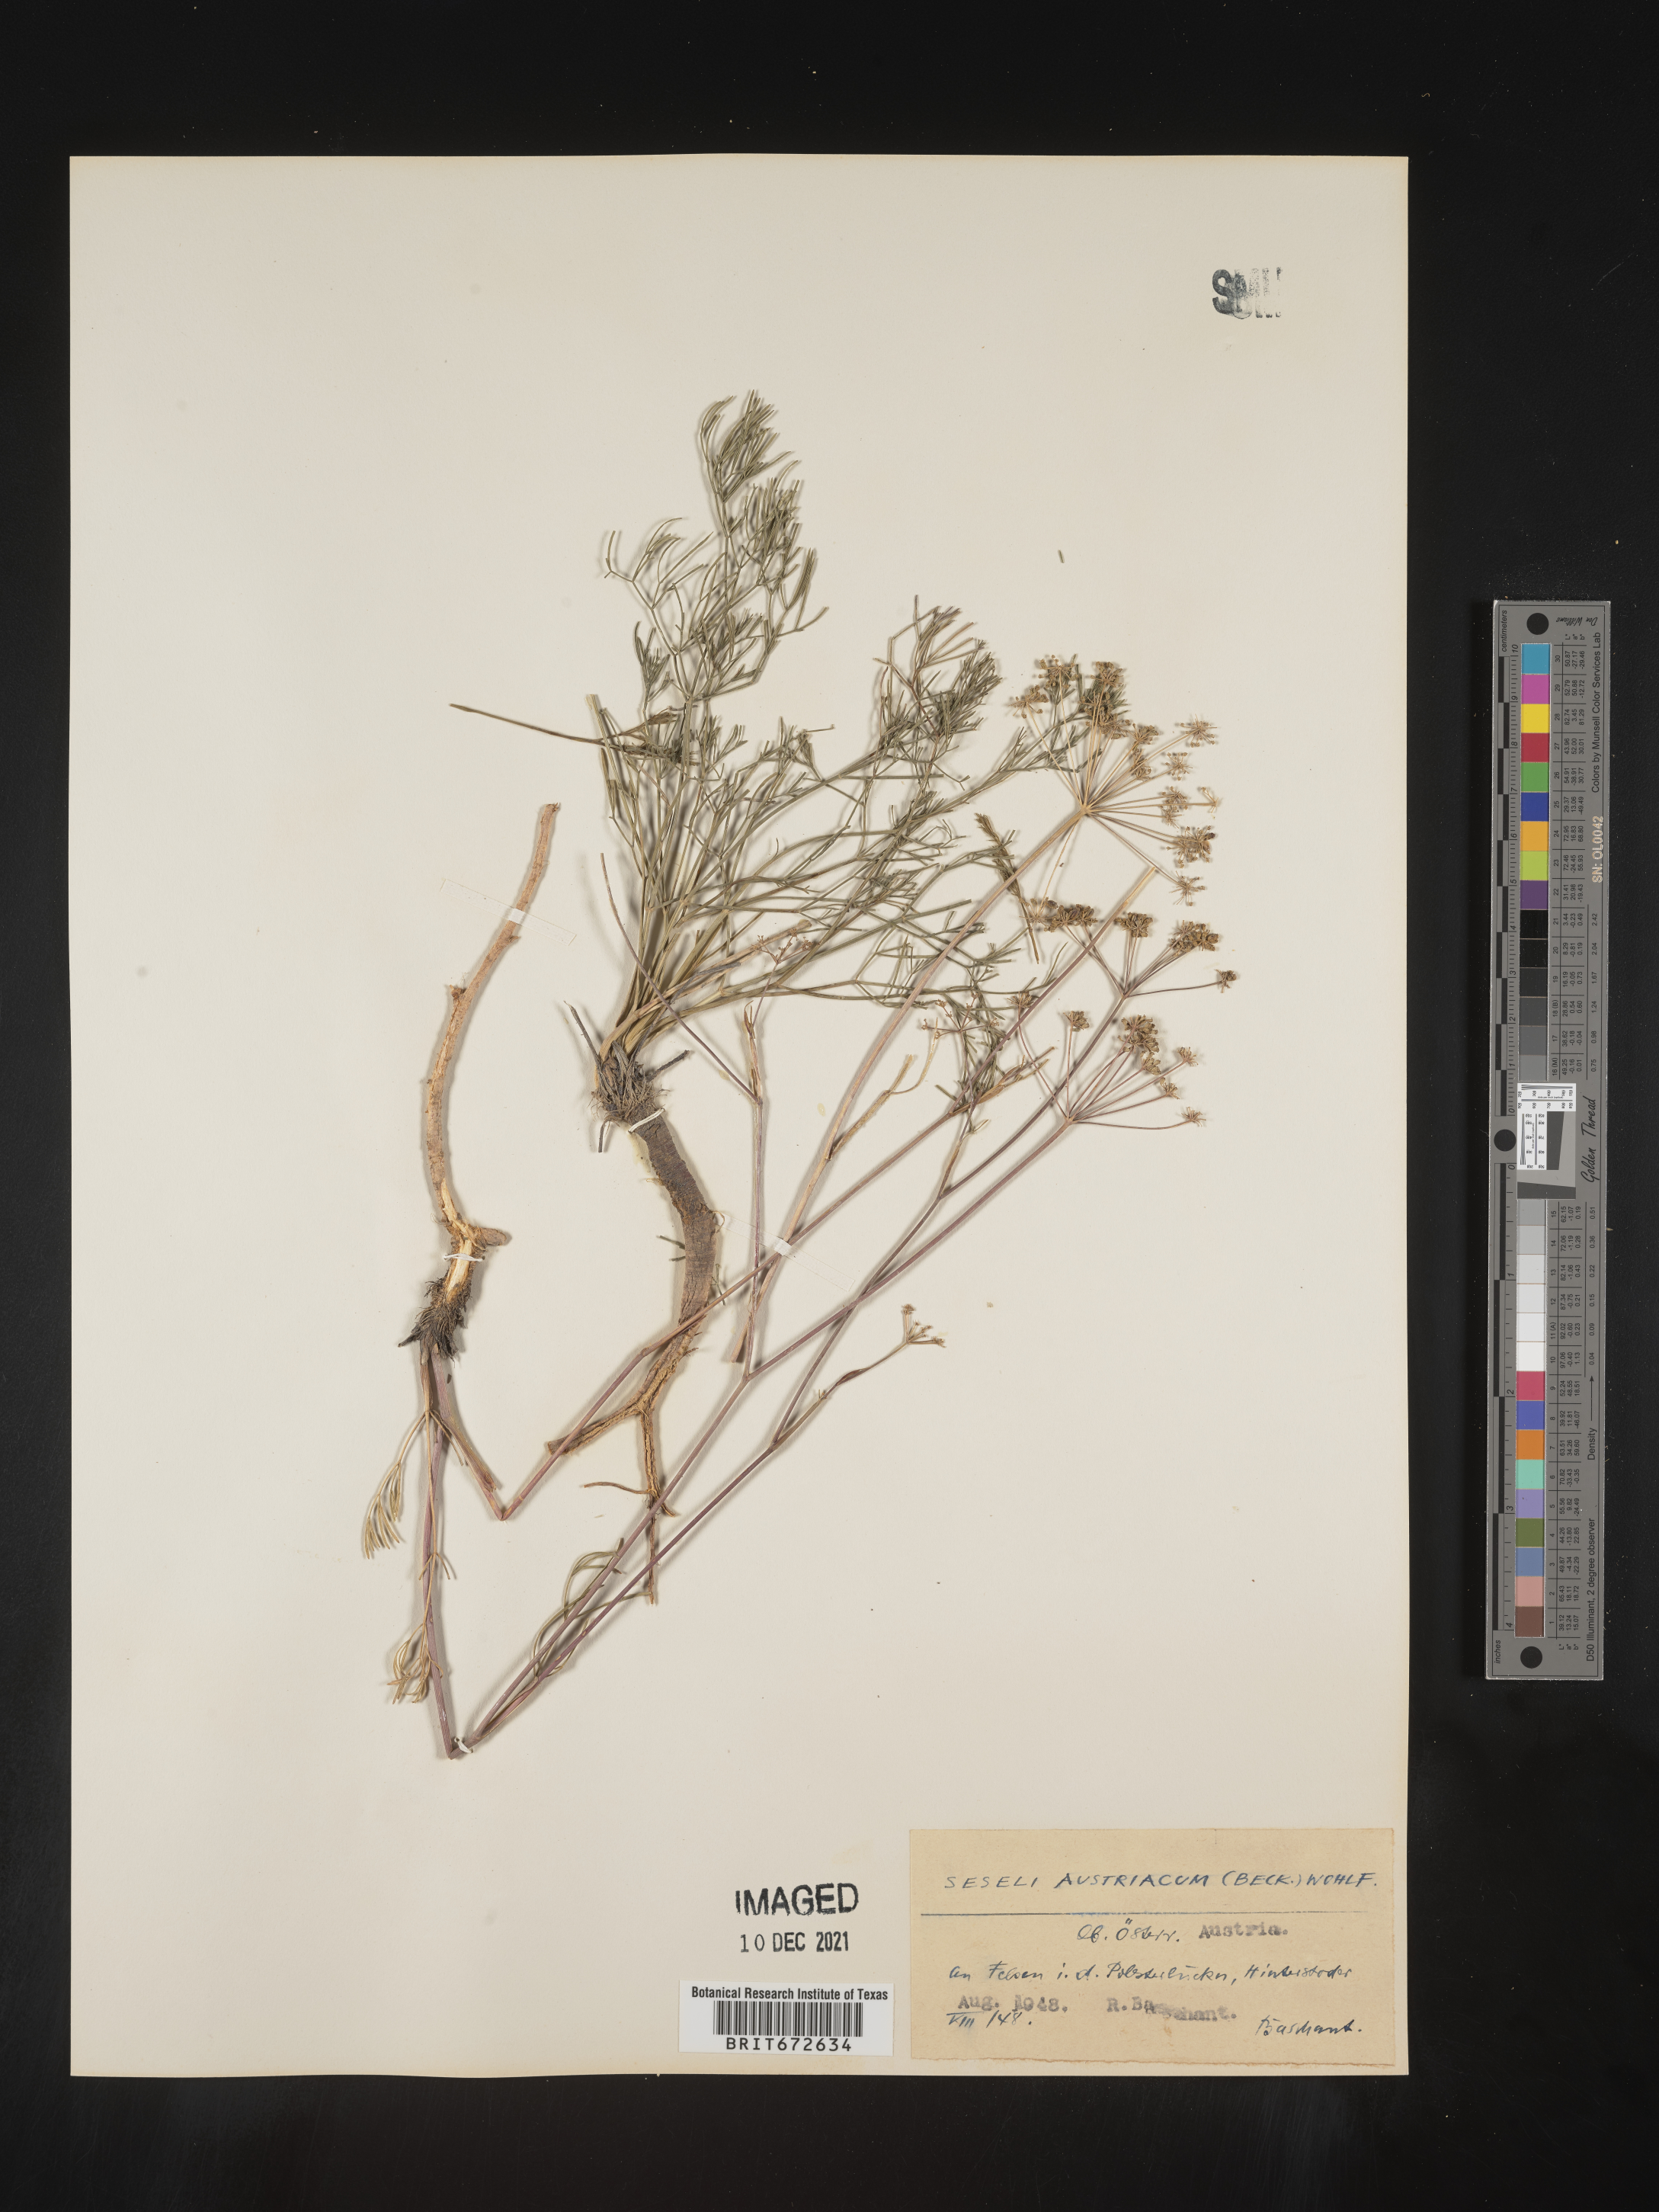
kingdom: Plantae
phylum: Tracheophyta
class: Magnoliopsida
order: Apiales
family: Apiaceae
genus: Seseli
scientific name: Seseli
